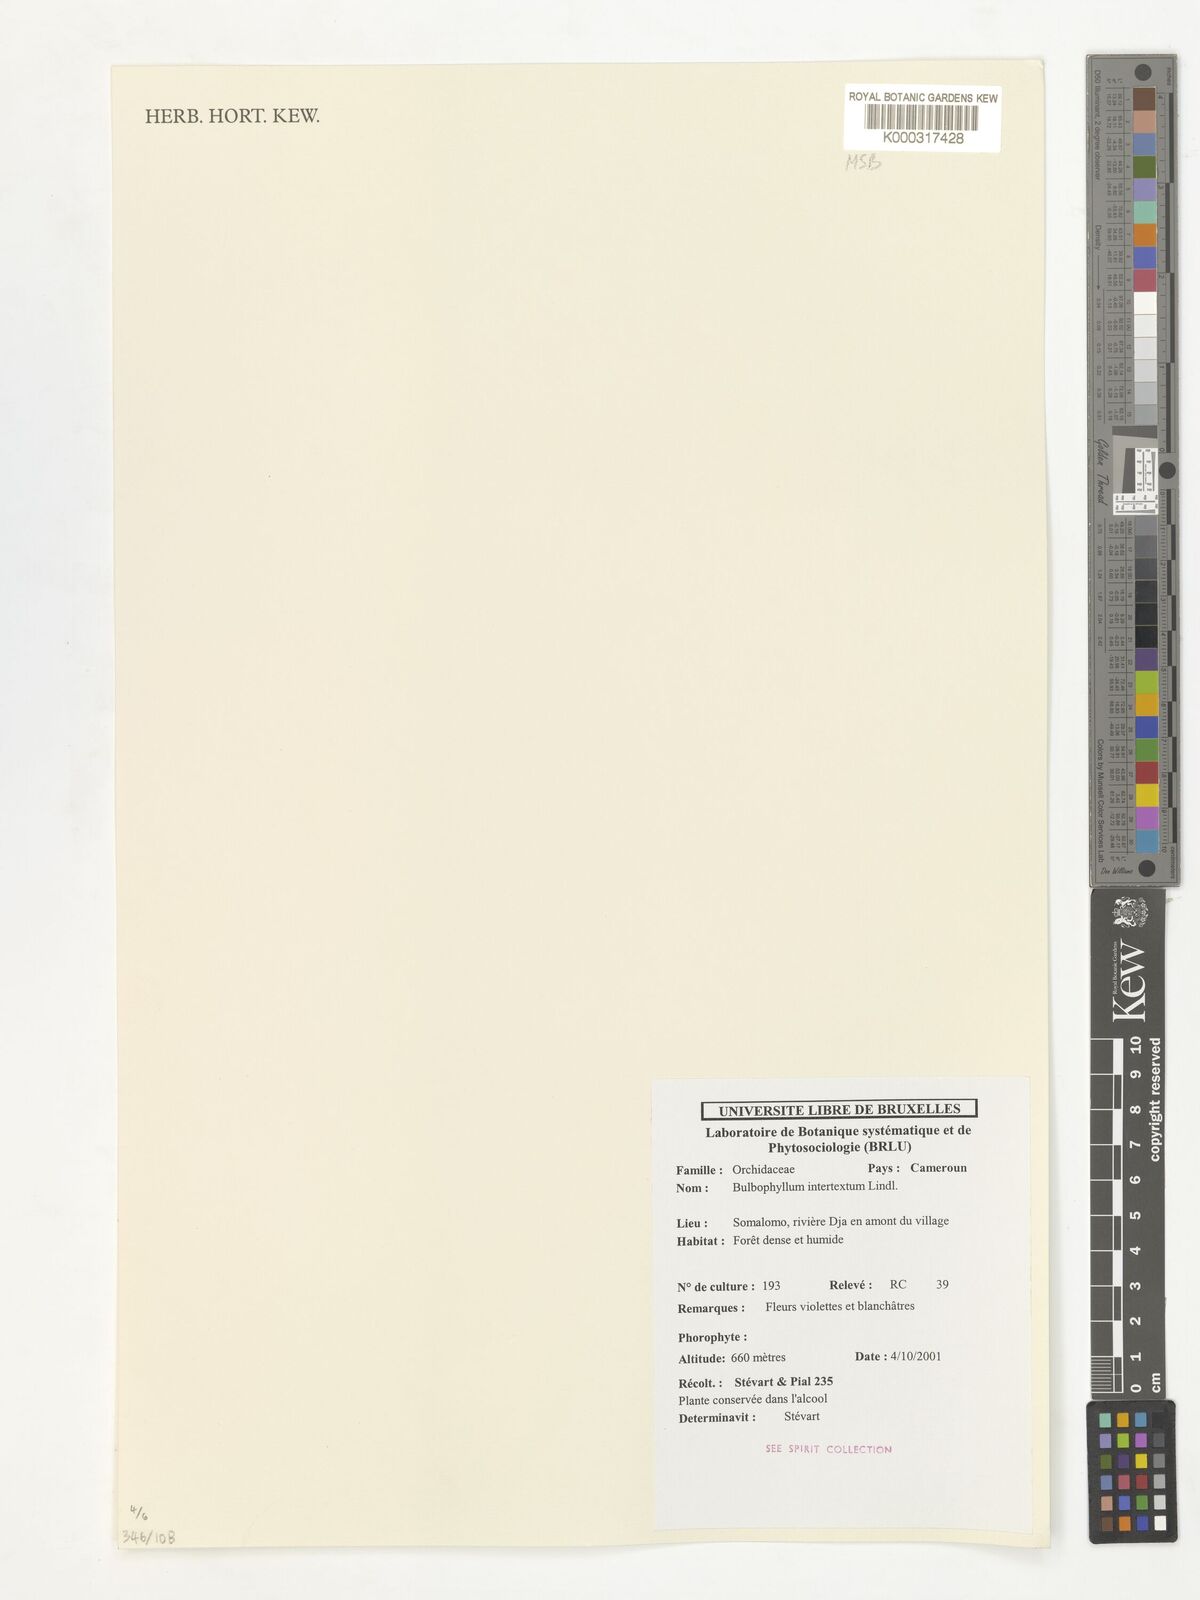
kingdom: Plantae
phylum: Tracheophyta
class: Liliopsida
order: Asparagales
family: Orchidaceae
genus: Bulbophyllum
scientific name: Bulbophyllum intertextum
